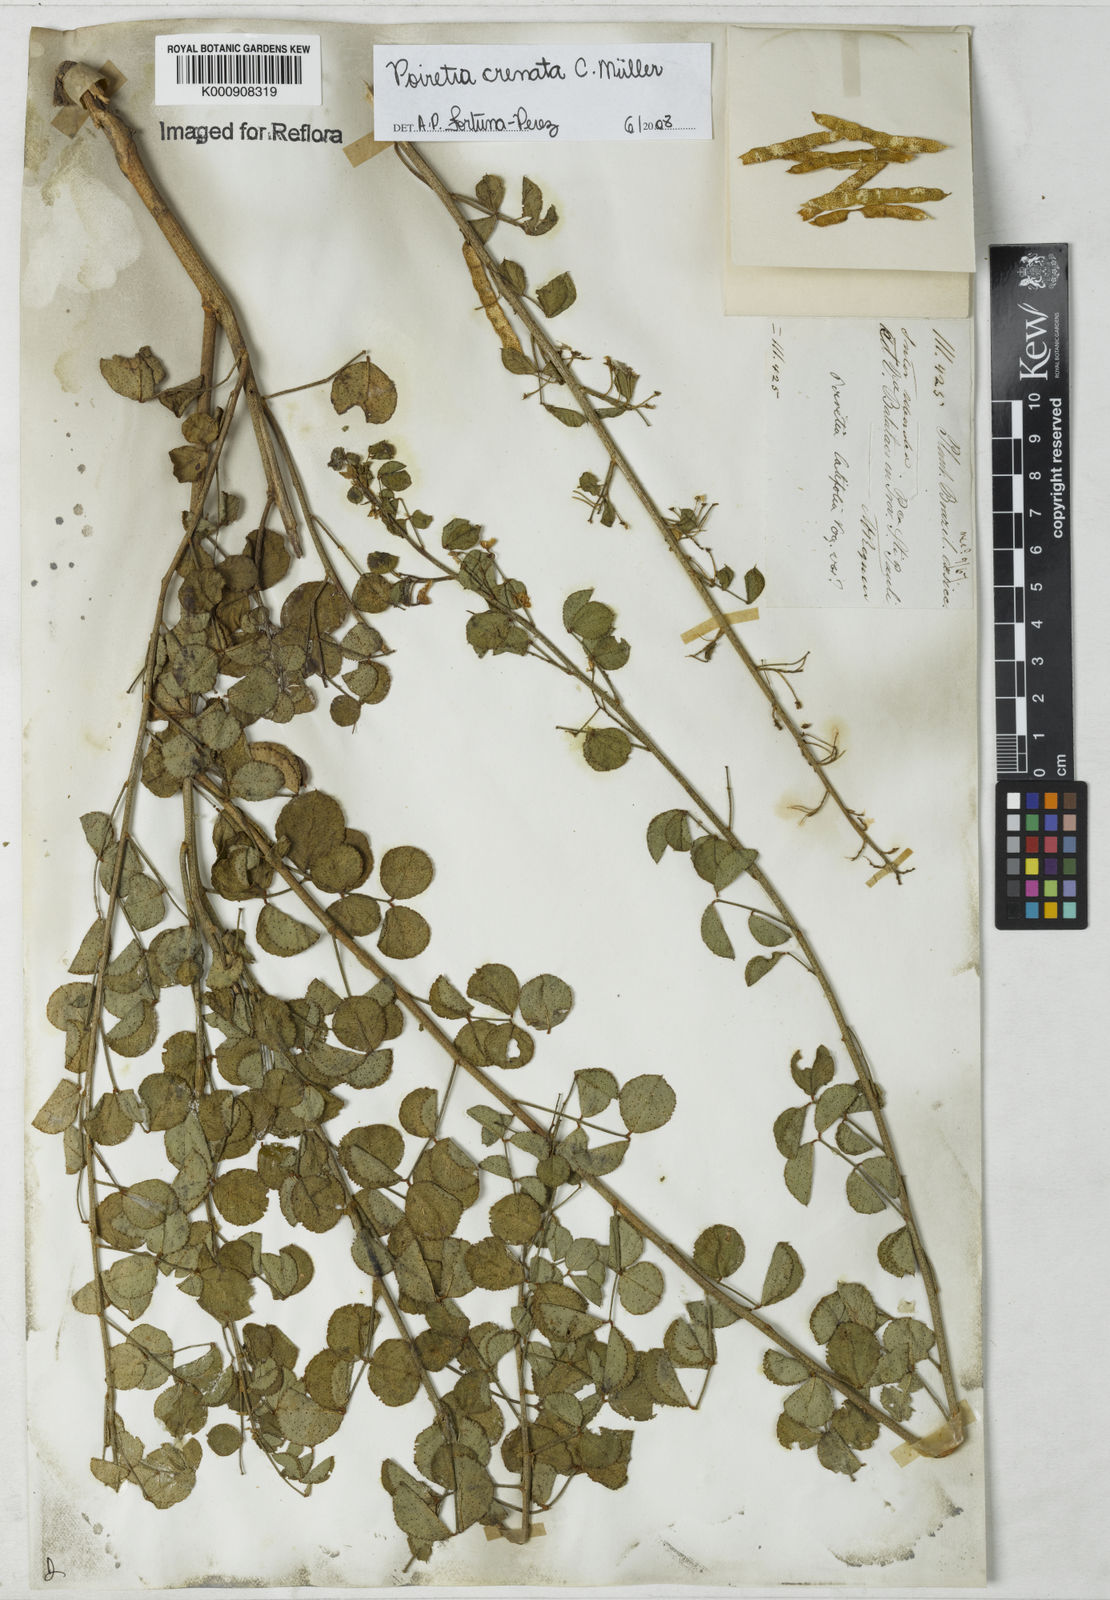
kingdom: Plantae
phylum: Tracheophyta
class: Magnoliopsida
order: Fabales
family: Fabaceae
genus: Poiretia
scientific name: Poiretia
